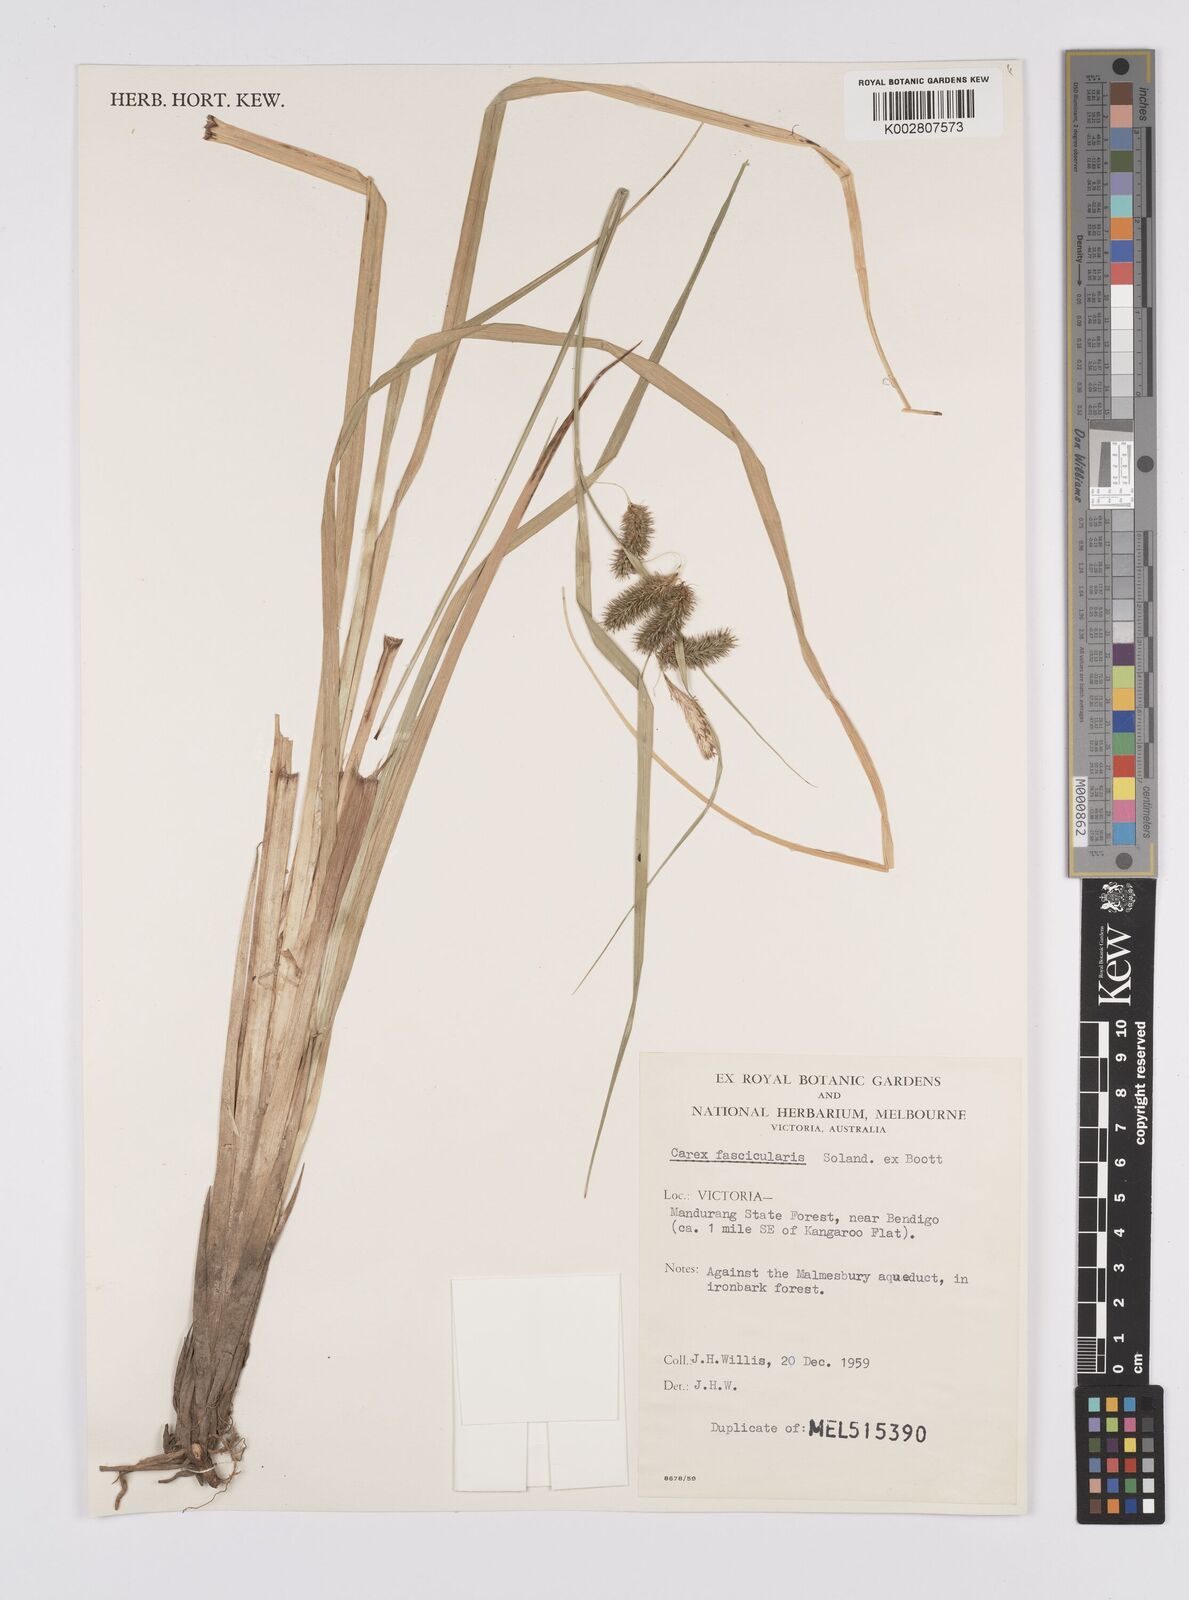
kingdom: Plantae
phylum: Tracheophyta
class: Liliopsida
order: Poales
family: Cyperaceae
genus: Carex
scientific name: Carex fascicularis
